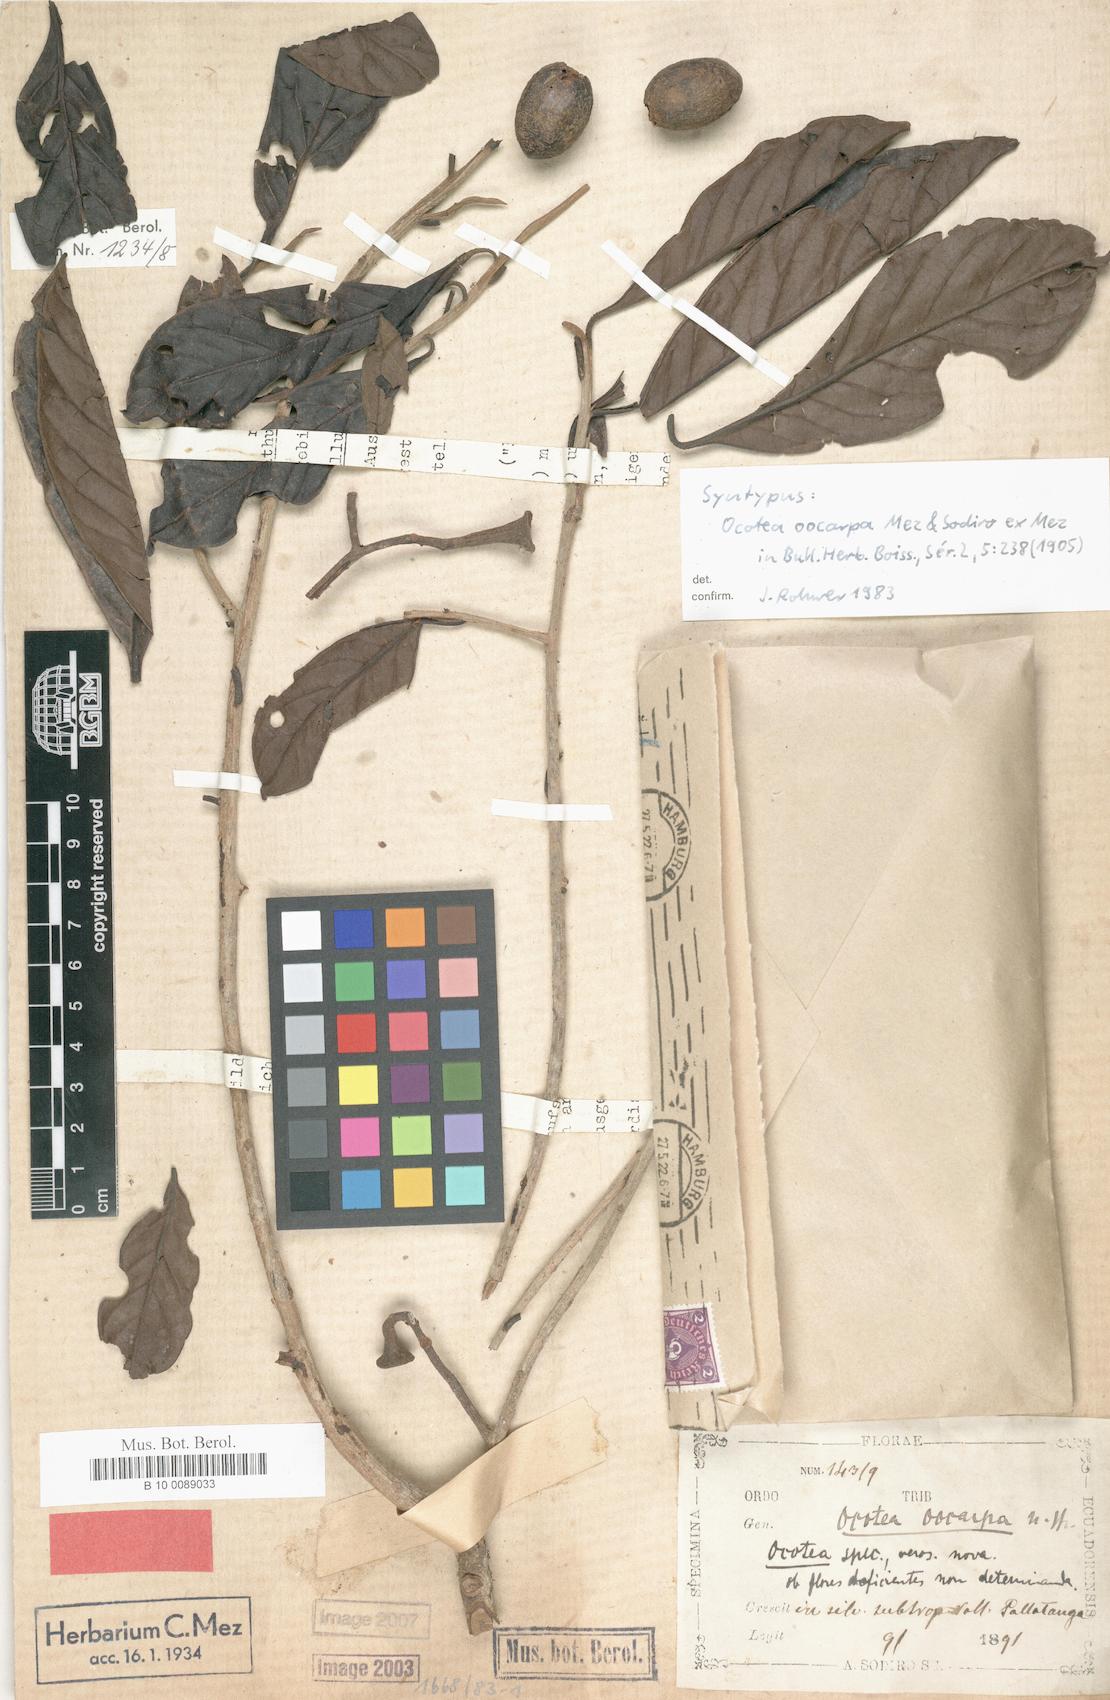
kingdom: Plantae
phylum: Tracheophyta
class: Magnoliopsida
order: Laurales
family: Lauraceae
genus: Ocotea
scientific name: Ocotea cuneifolia
